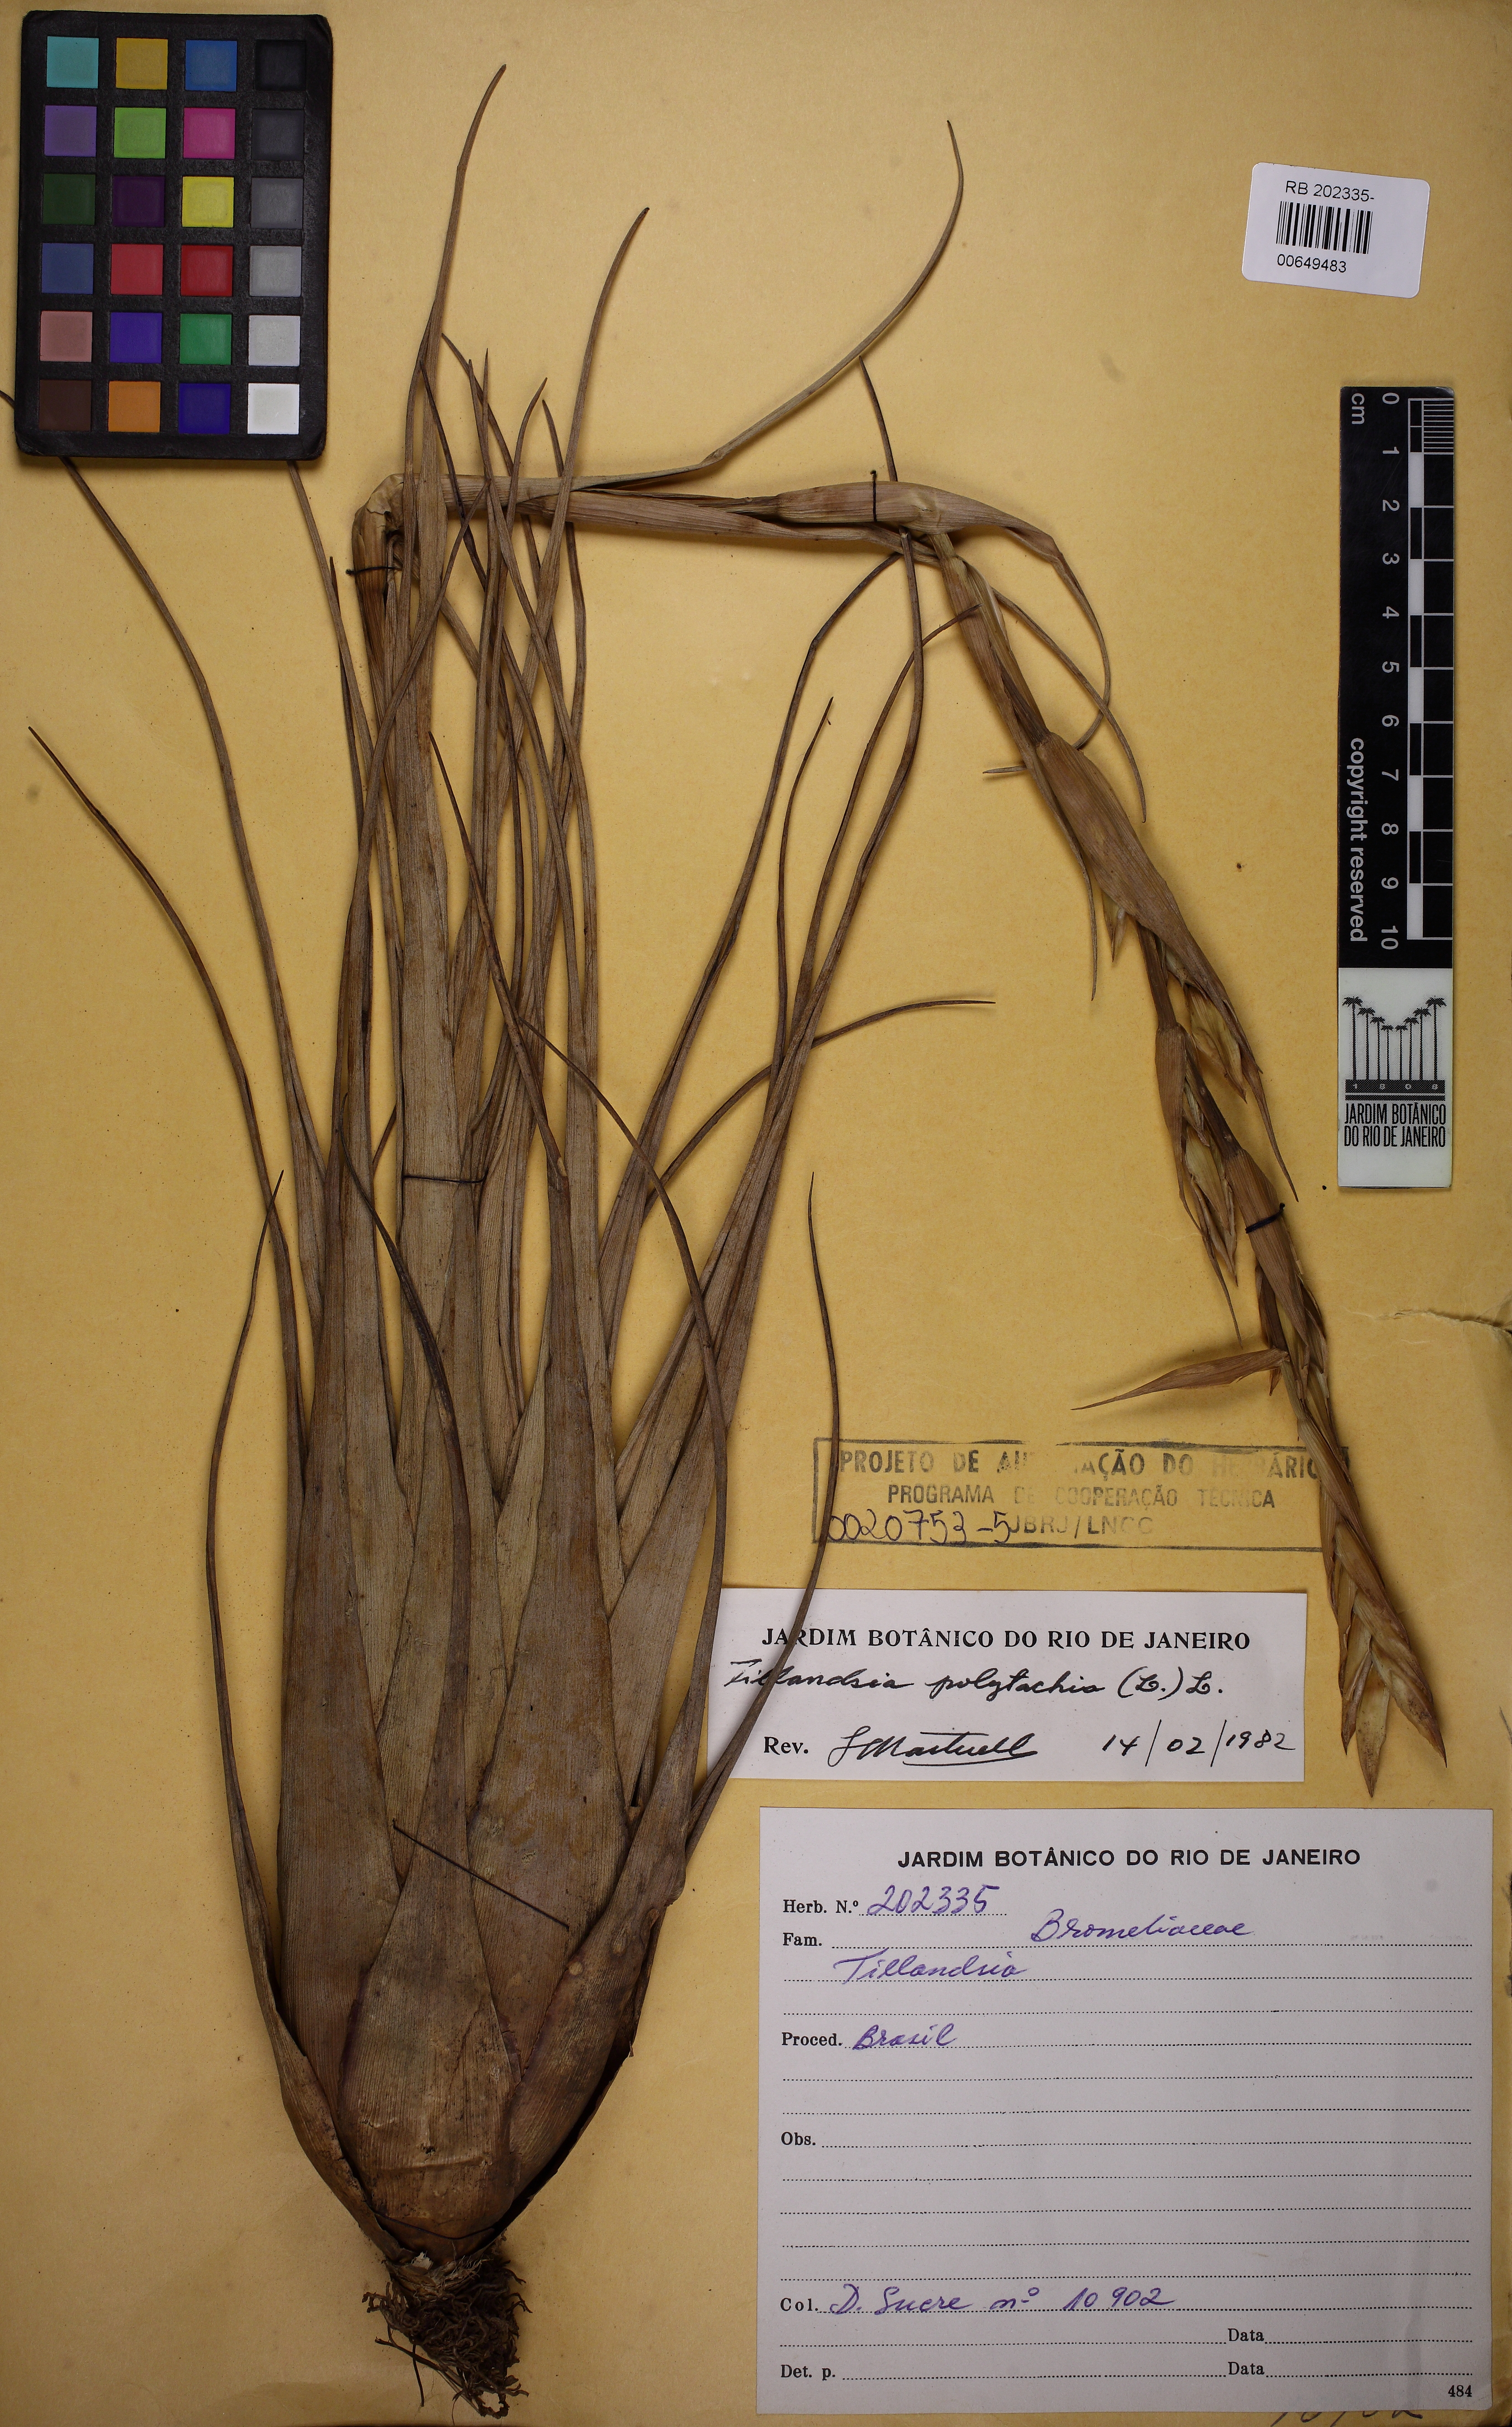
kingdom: Plantae
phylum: Tracheophyta
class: Liliopsida
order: Poales
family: Bromeliaceae
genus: Tillandsia
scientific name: Tillandsia polystachia
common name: Airplant
